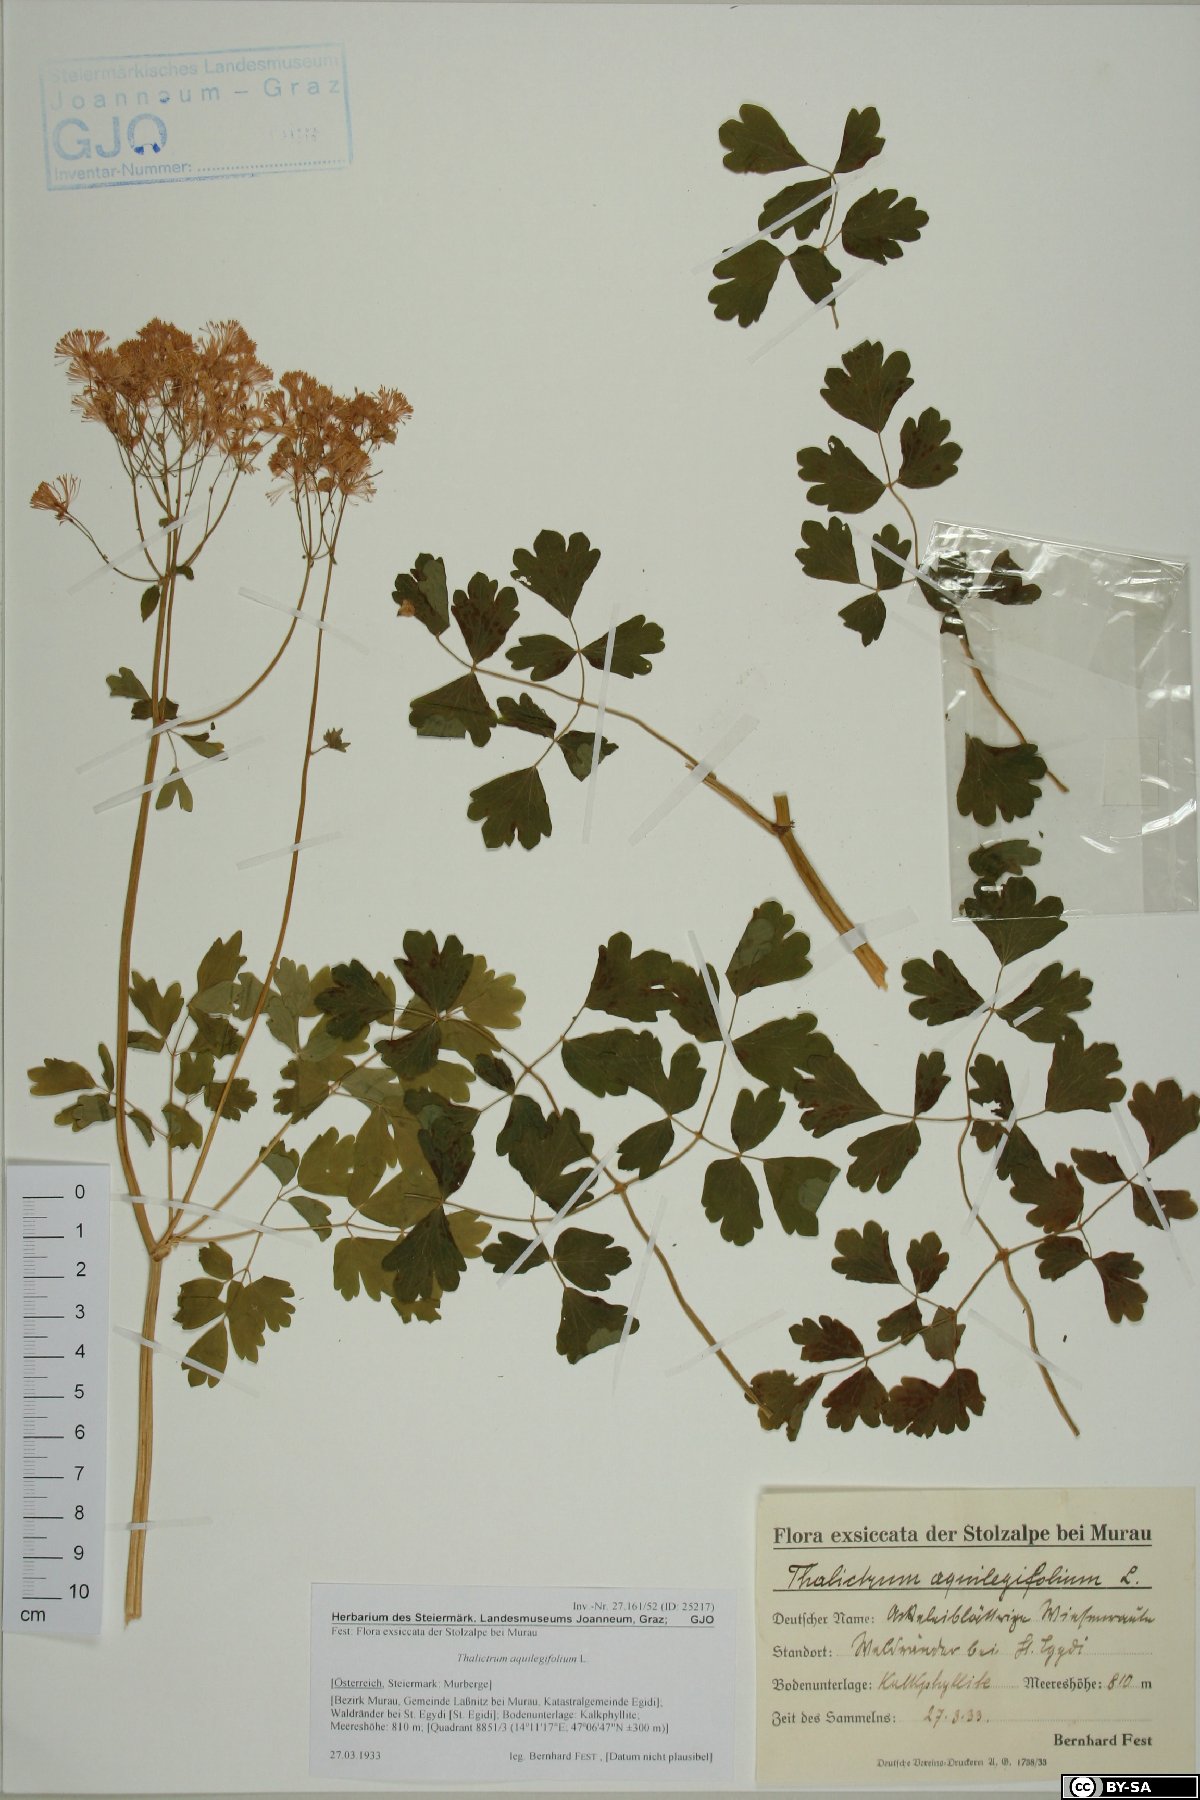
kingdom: Plantae
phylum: Tracheophyta
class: Magnoliopsida
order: Ranunculales
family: Ranunculaceae
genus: Thalictrum
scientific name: Thalictrum aquilegiifolium
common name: French meadow-rue
